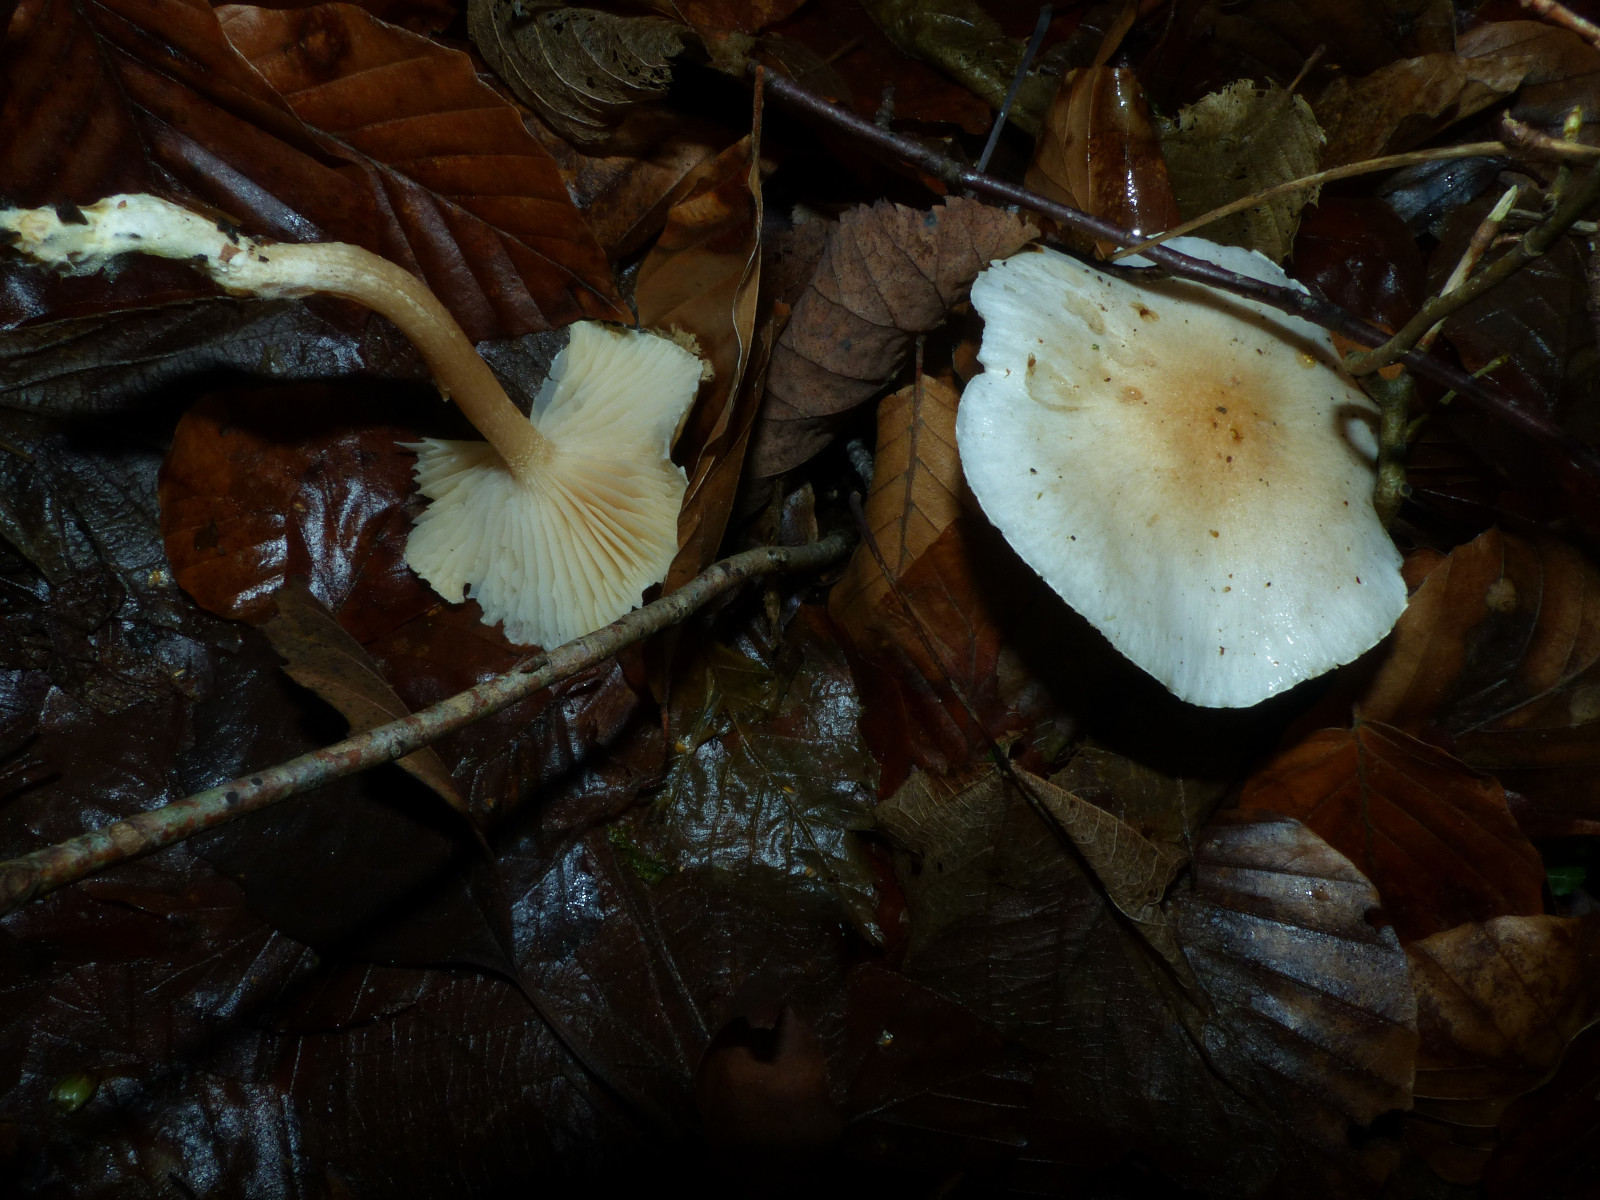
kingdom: Fungi
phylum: Basidiomycota
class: Agaricomycetes
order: Agaricales
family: Hygrophoraceae
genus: Hygrophorus
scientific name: Hygrophorus unicolor
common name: orangeøjet sneglehat
